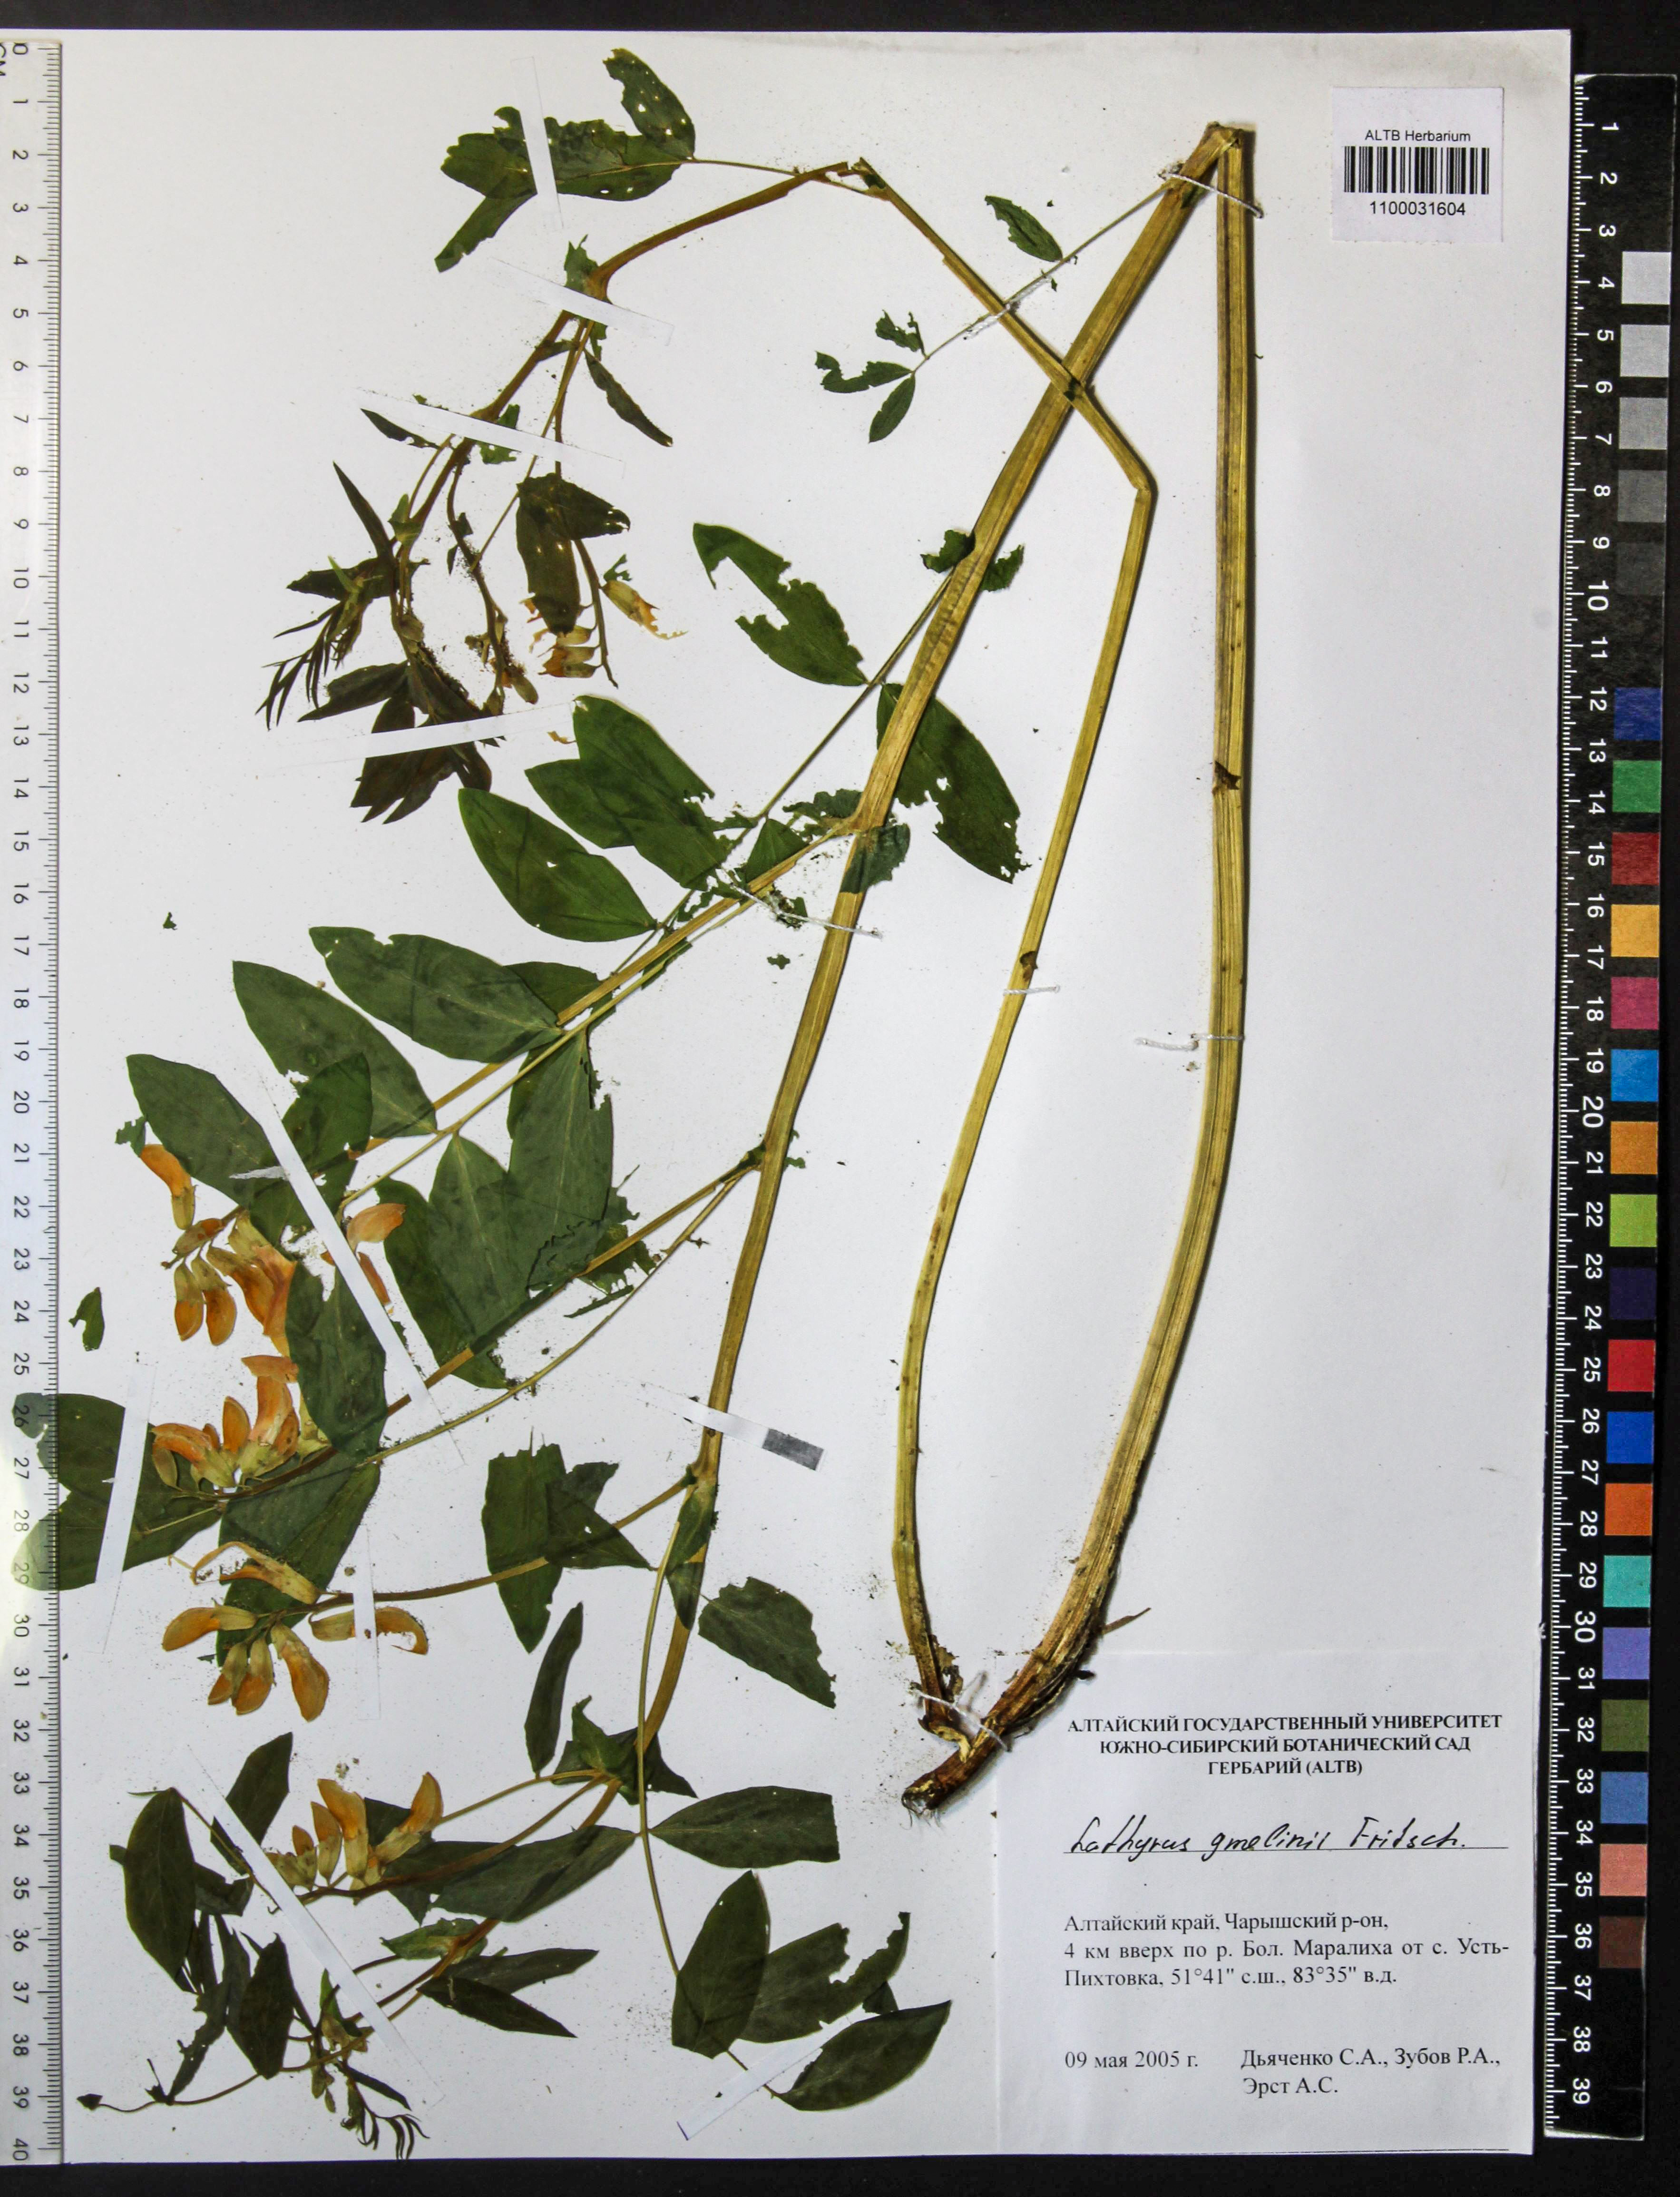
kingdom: Plantae
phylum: Tracheophyta
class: Magnoliopsida
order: Fabales
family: Fabaceae
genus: Lathyrus
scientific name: Lathyrus gmelinii
